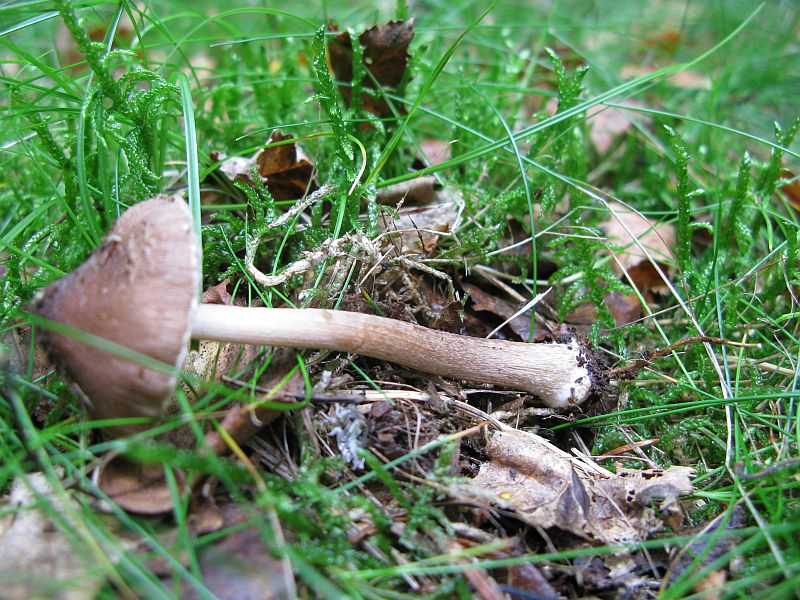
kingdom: Fungi
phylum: Basidiomycota
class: Agaricomycetes
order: Agaricales
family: Inocybaceae
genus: Inocybe
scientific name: Inocybe napipes
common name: roeknoldet trævlhat
